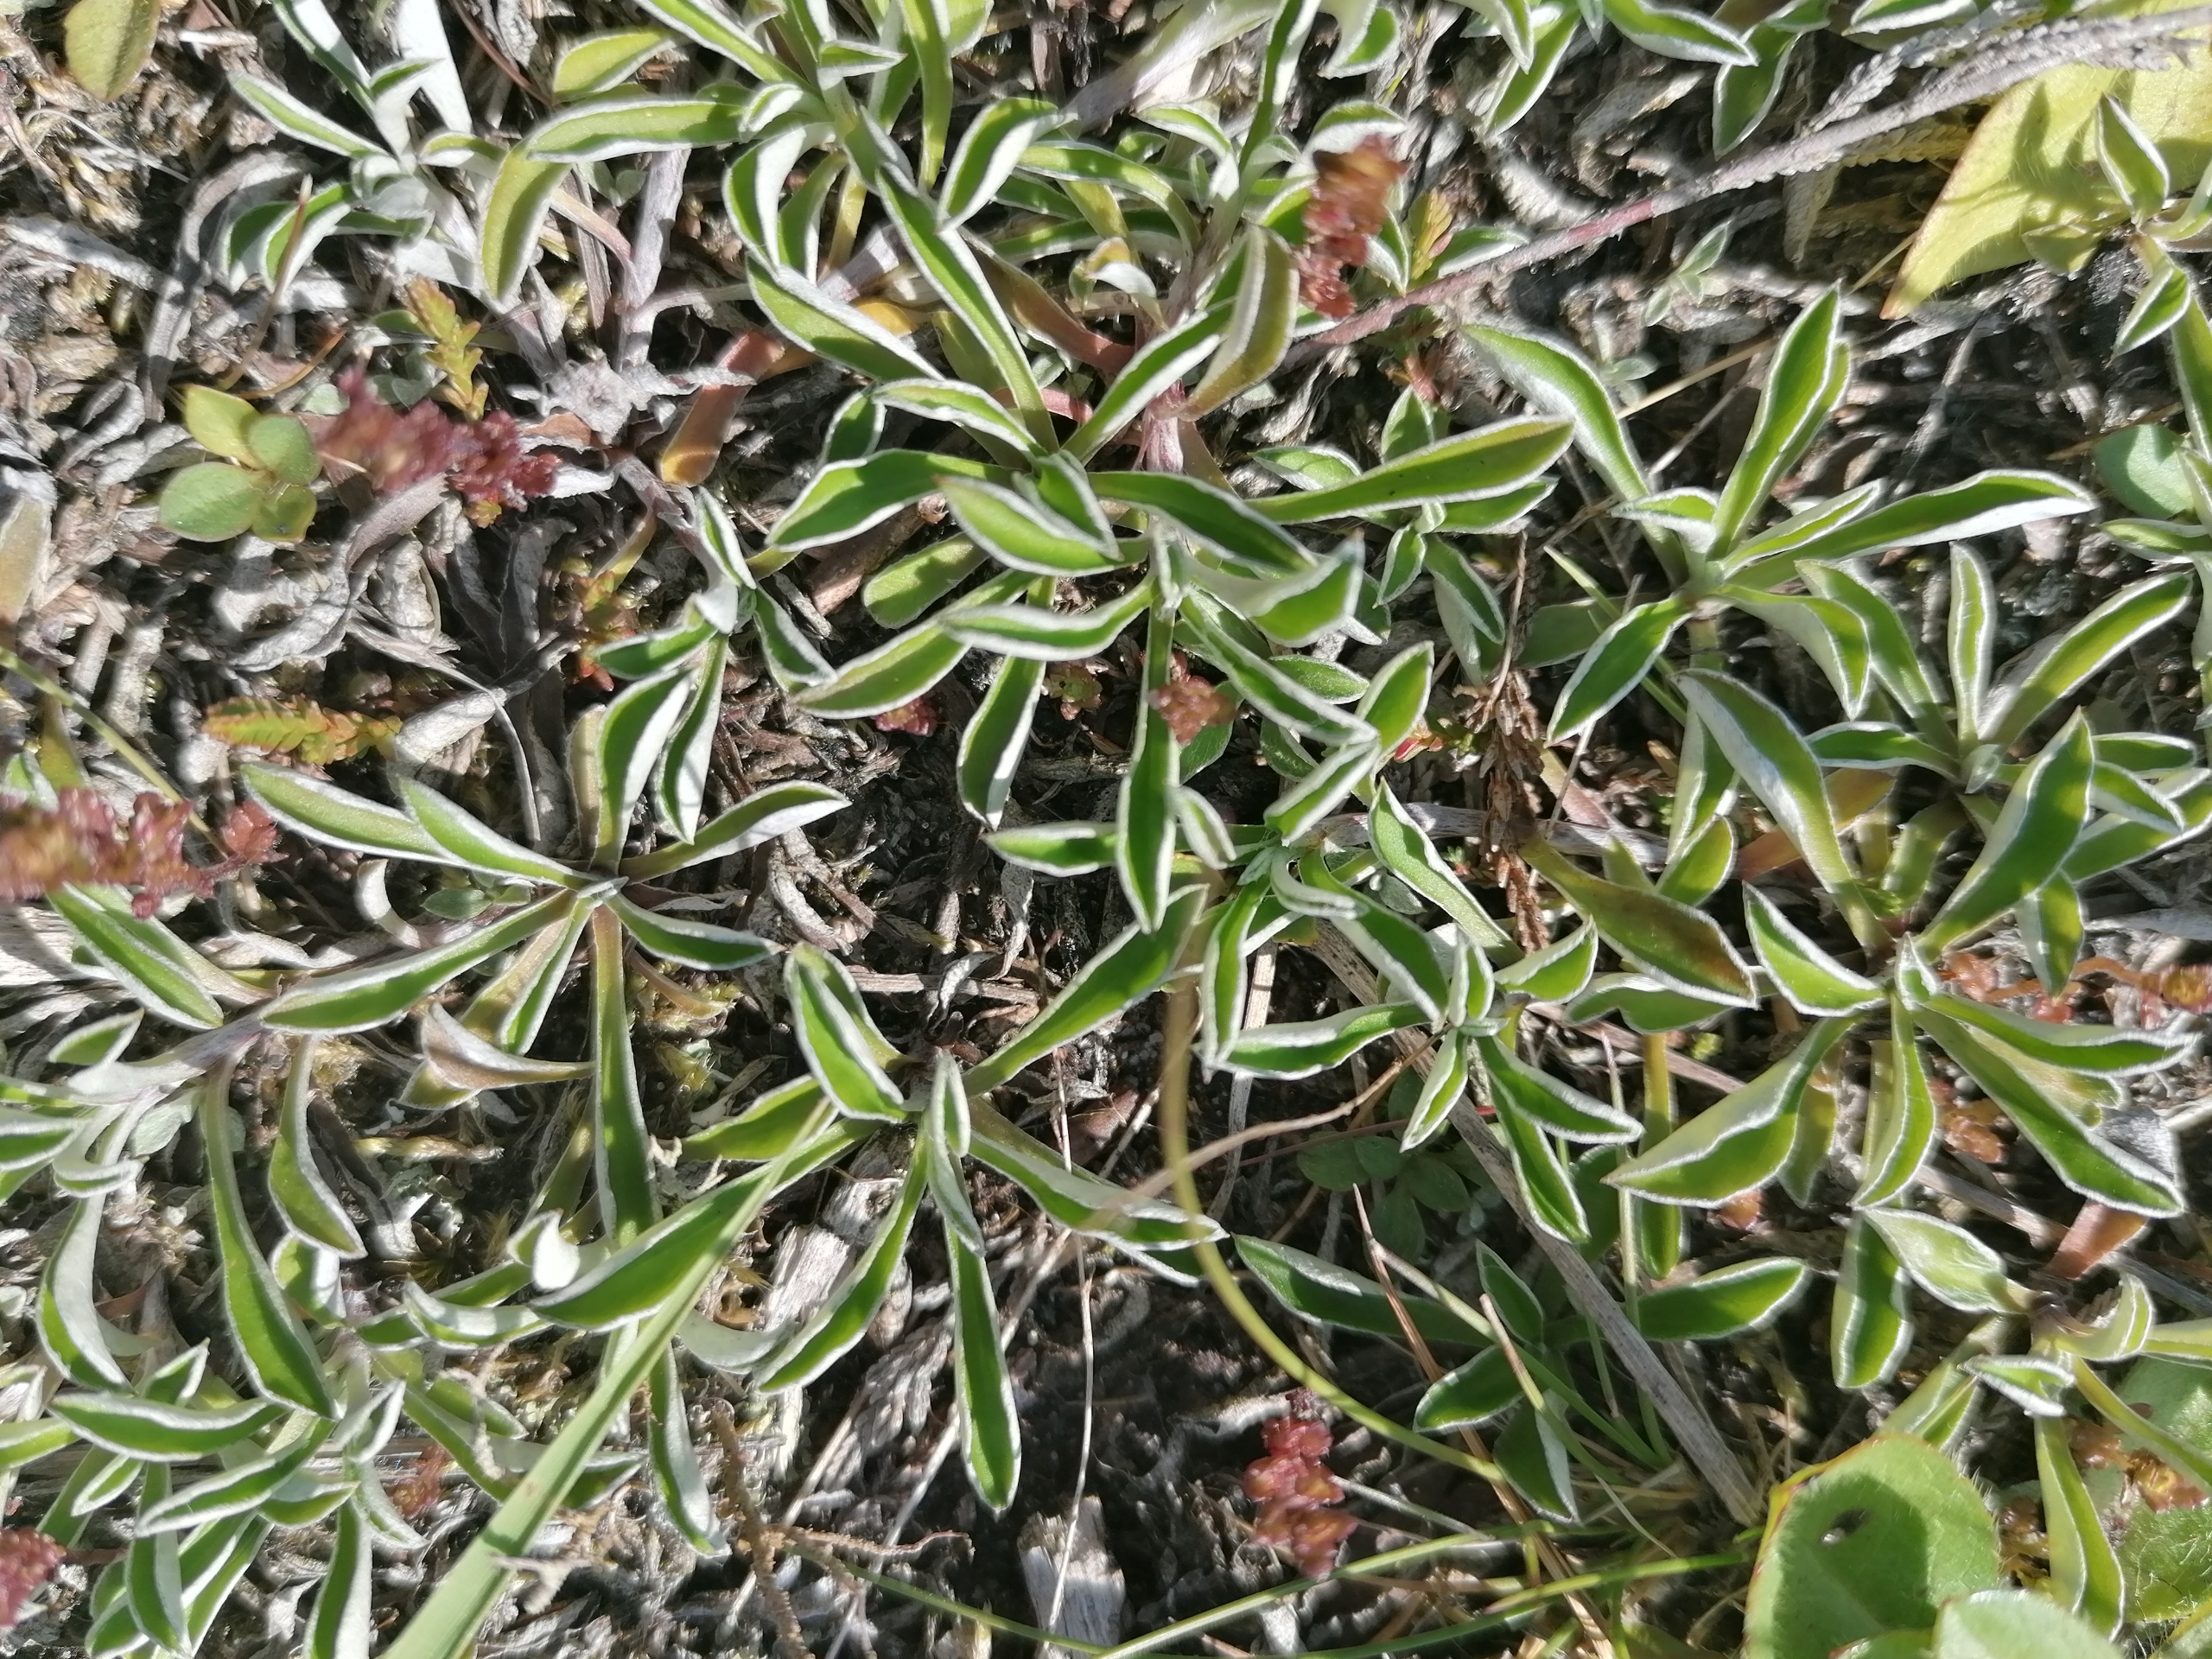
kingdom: Plantae
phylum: Tracheophyta
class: Magnoliopsida
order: Asterales
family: Asteraceae
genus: Antennaria
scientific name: Antennaria dioica
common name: Kattefod
